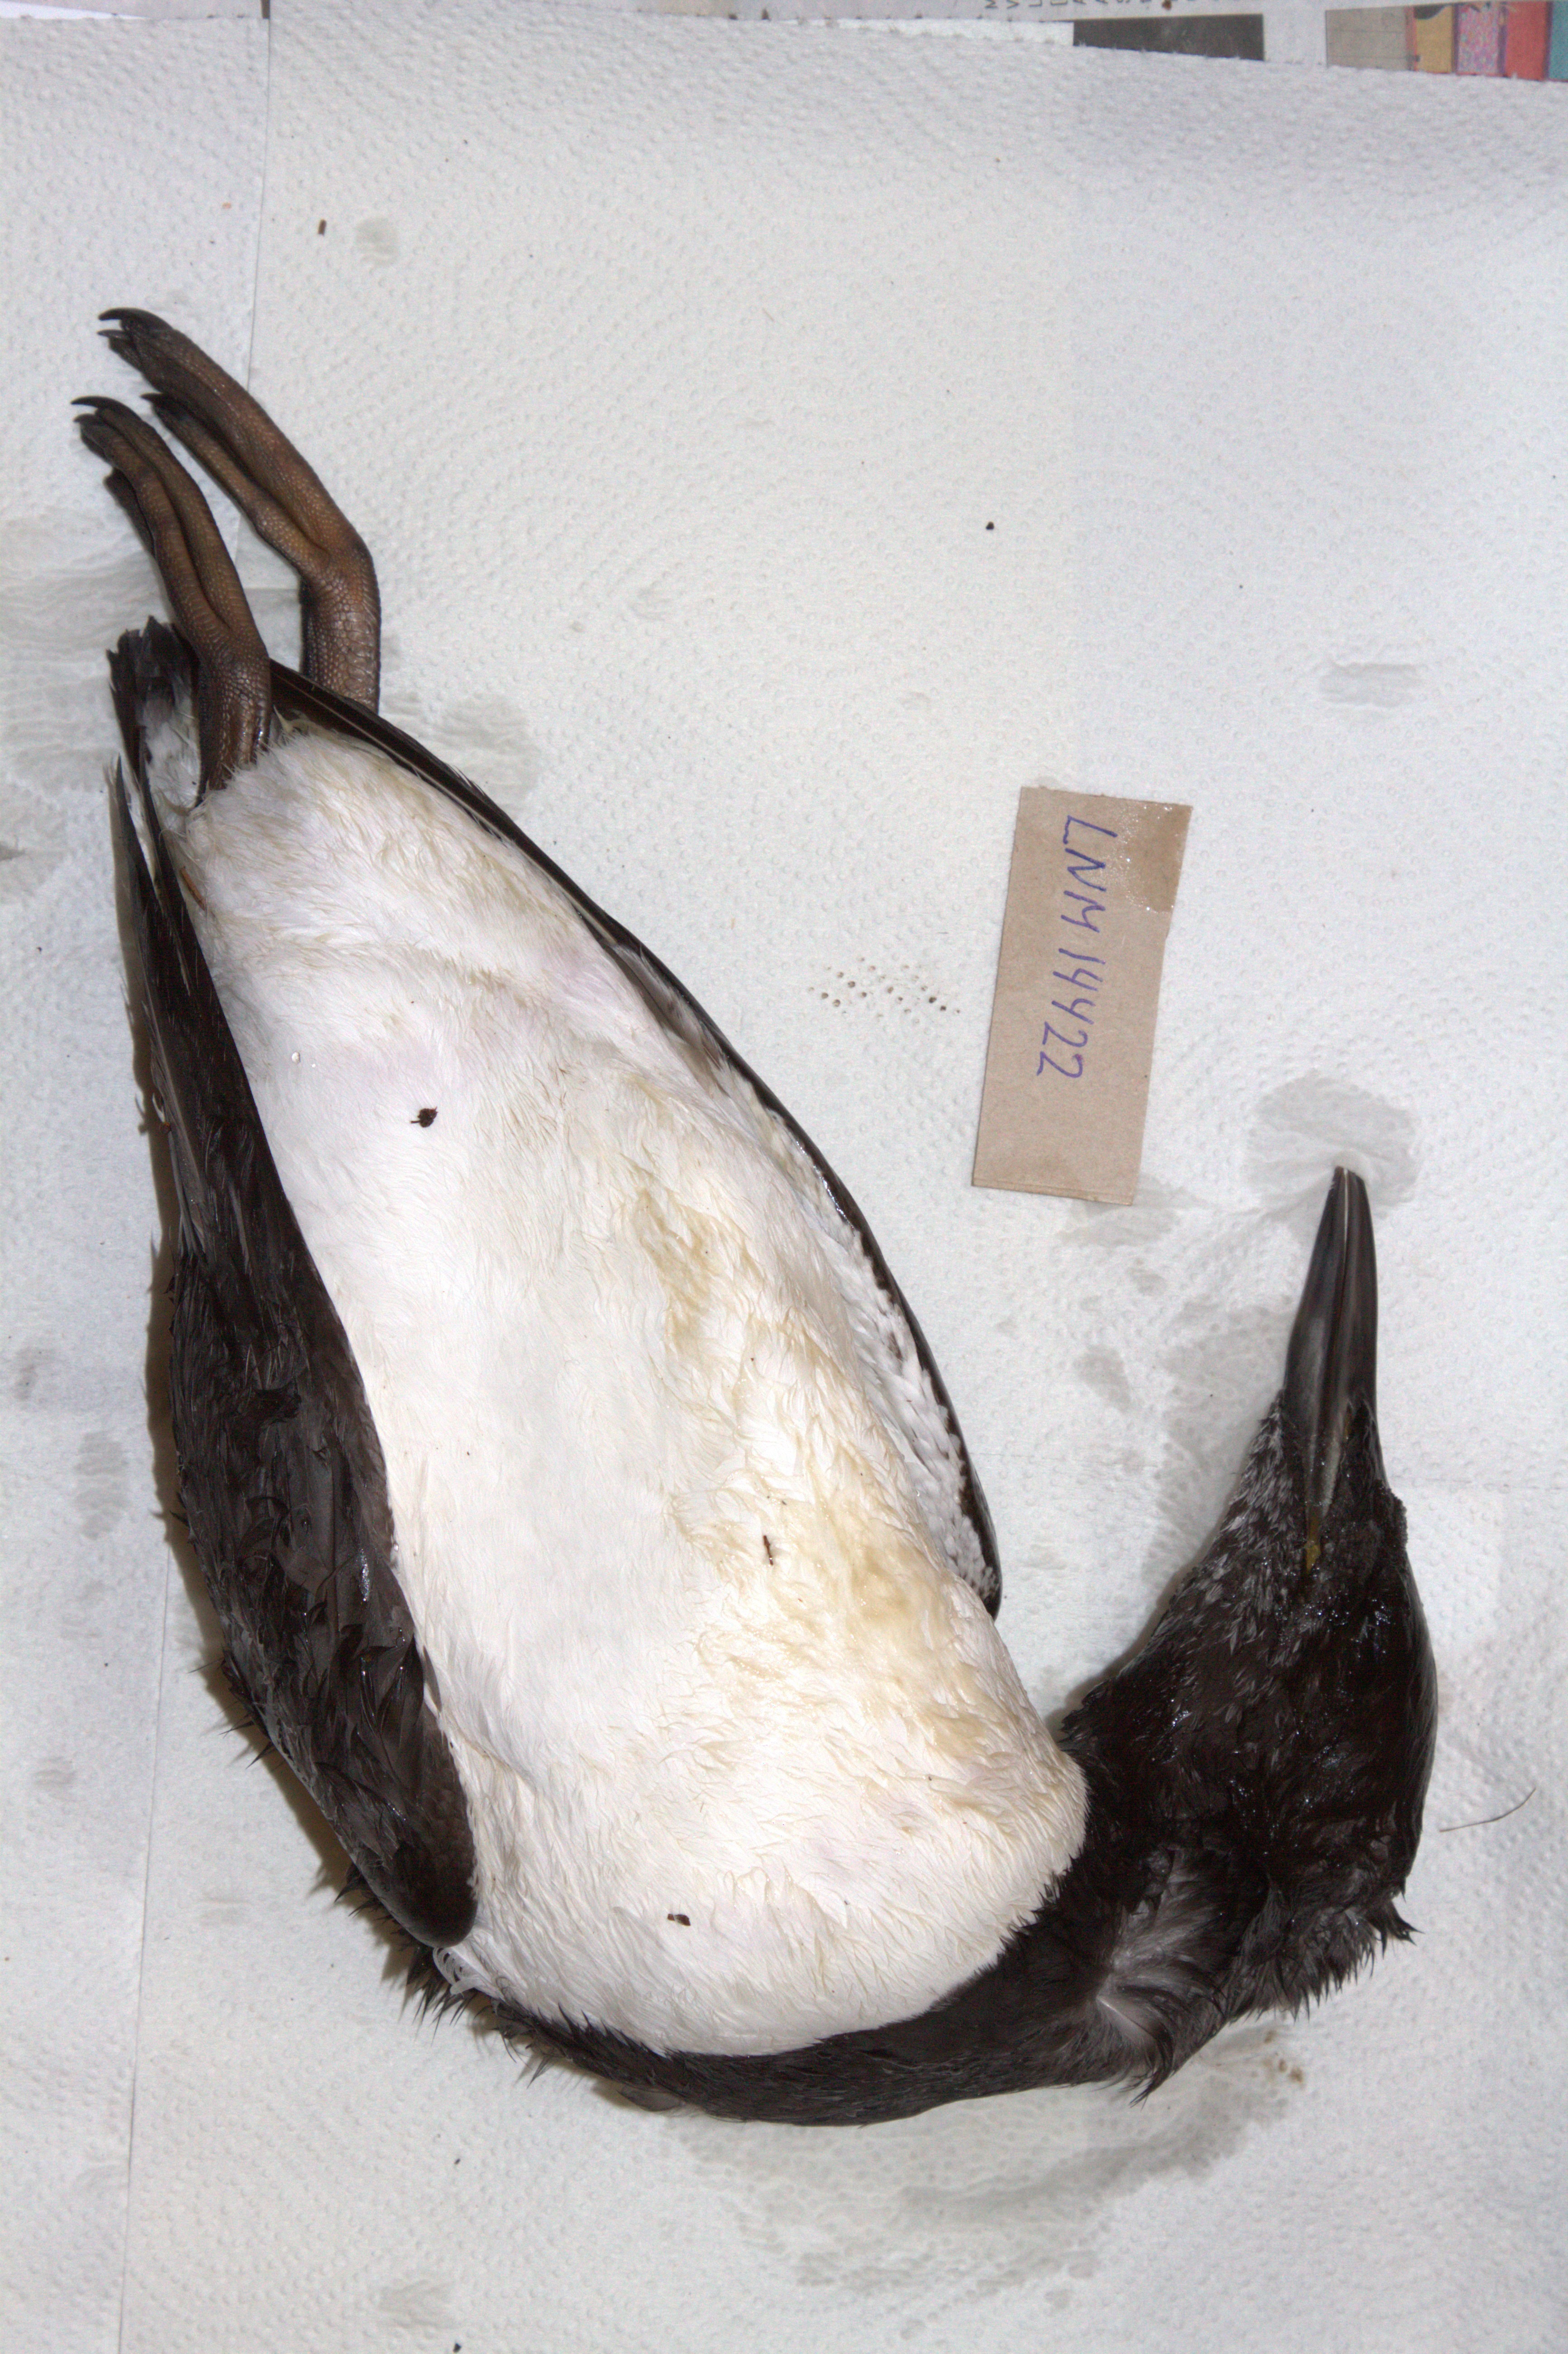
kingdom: Animalia
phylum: Chordata
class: Aves
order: Charadriiformes
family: Alcidae
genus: Uria
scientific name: Uria aalge
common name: Common murre
